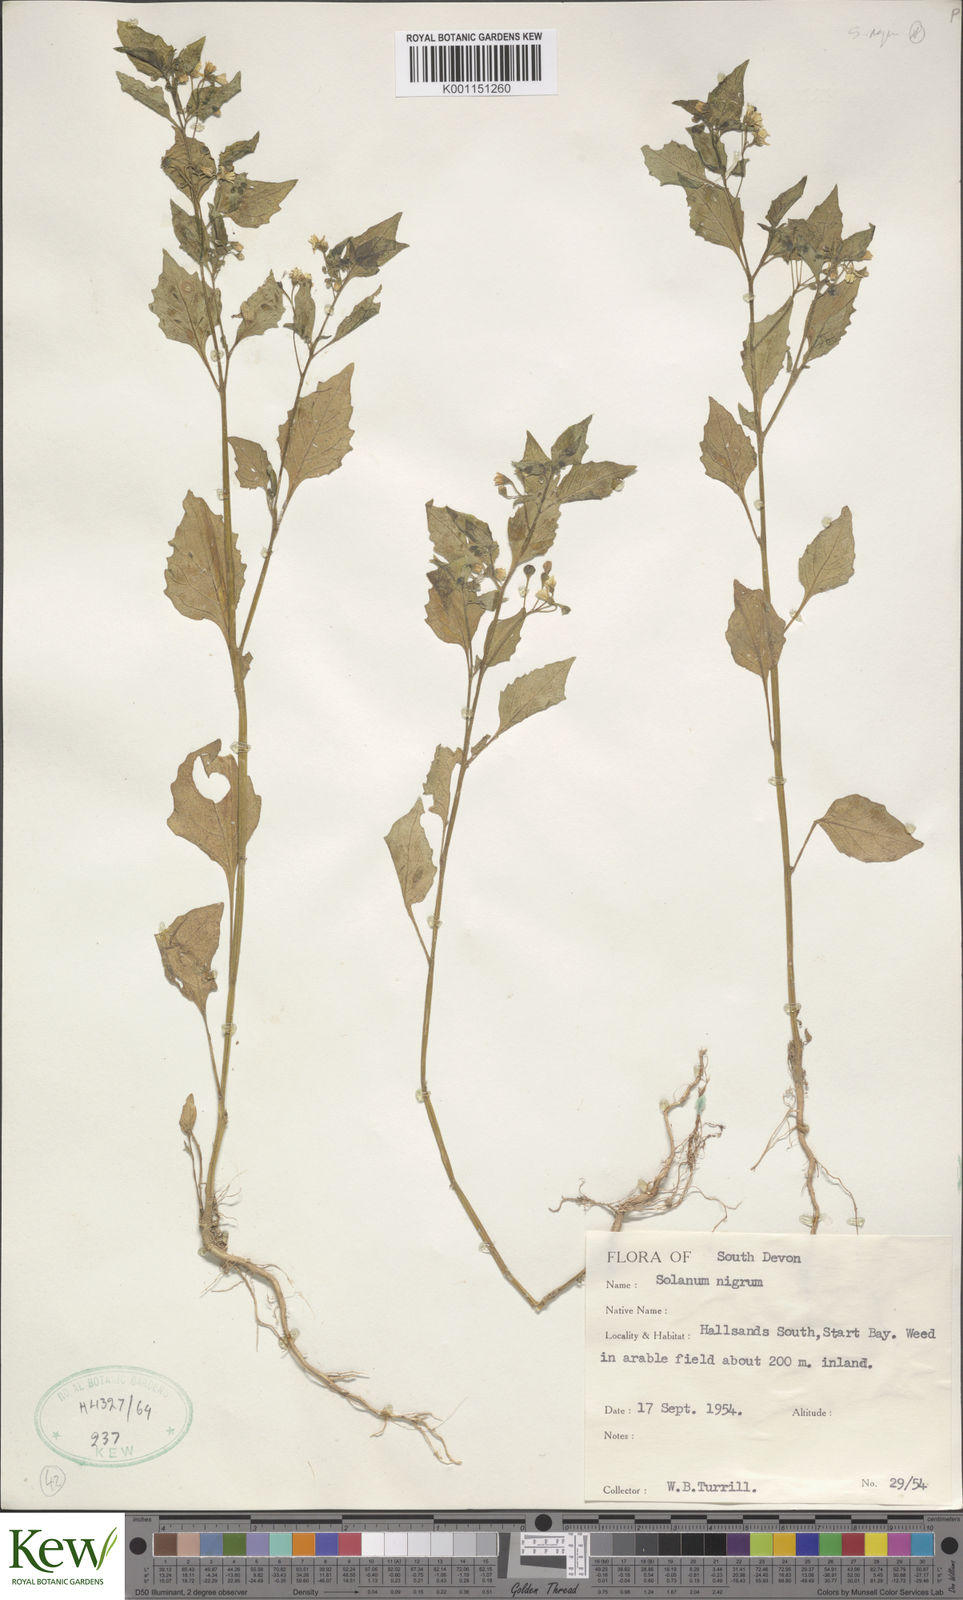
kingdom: Plantae
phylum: Tracheophyta
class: Magnoliopsida
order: Solanales
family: Solanaceae
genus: Solanum
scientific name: Solanum nigrum
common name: Black nightshade
